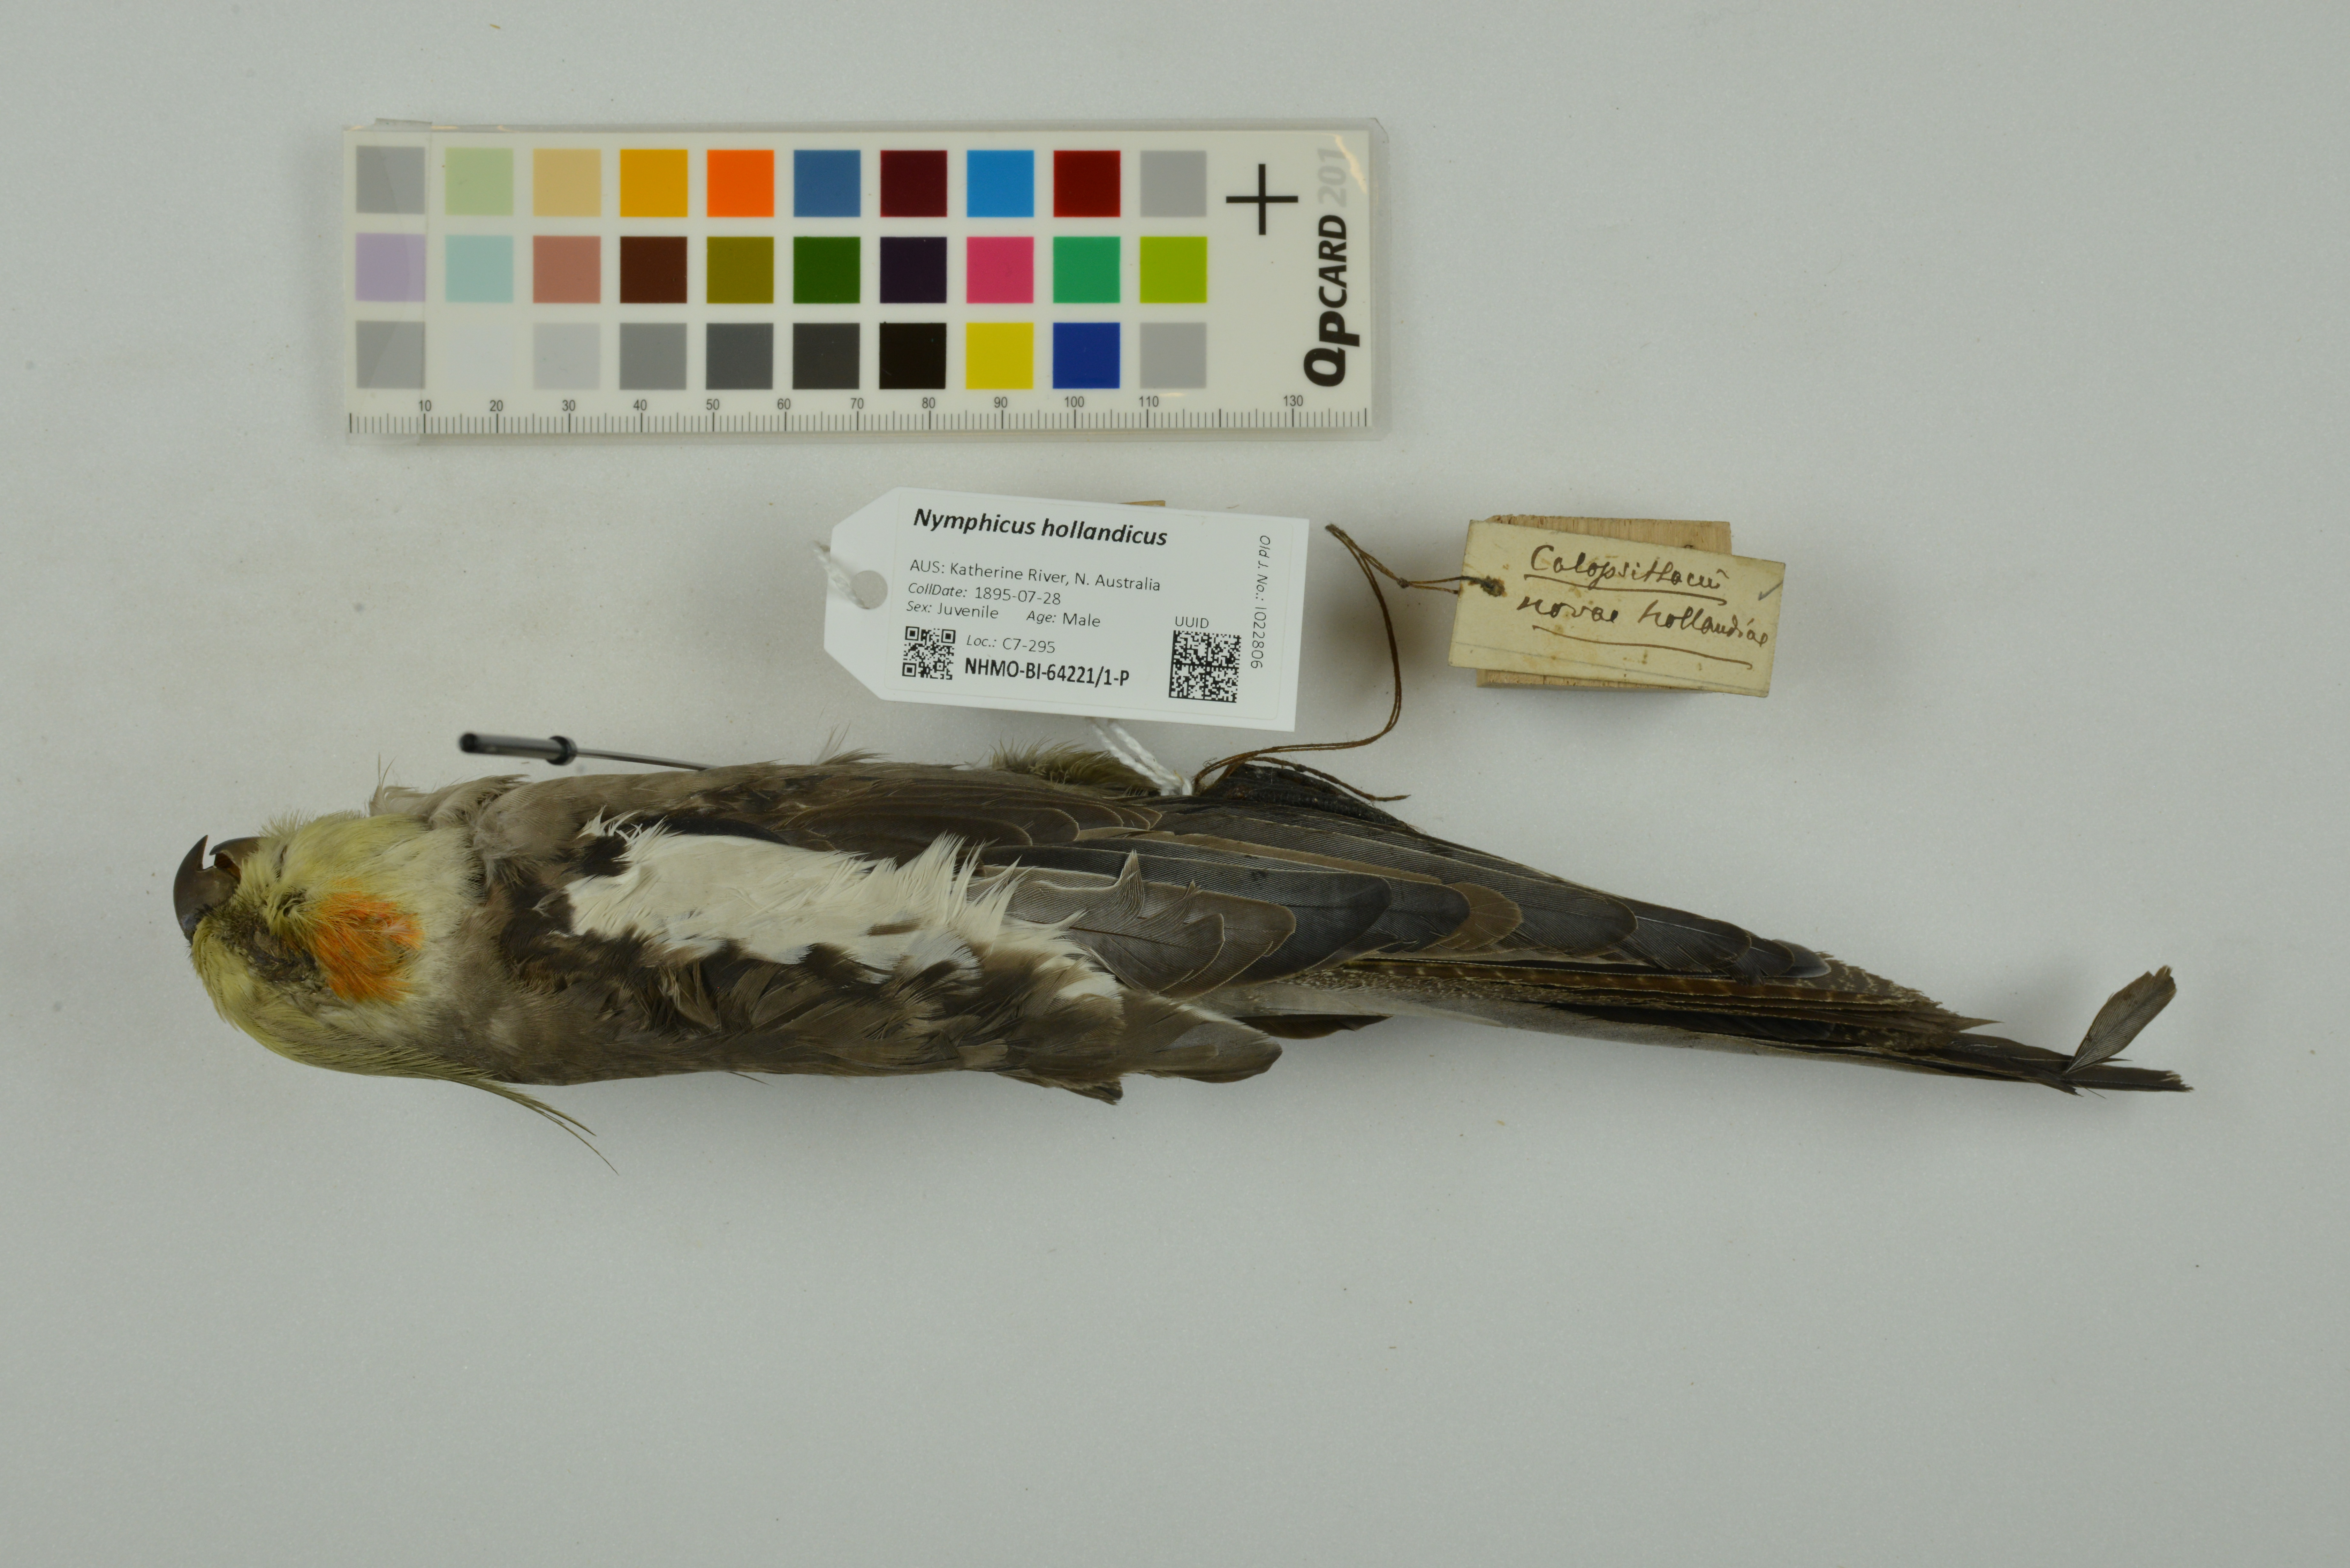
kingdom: Animalia
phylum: Chordata
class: Aves
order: Psittaciformes
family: Psittacidae
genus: Nymphicus
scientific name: Nymphicus hollandicus
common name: Cockatiel
